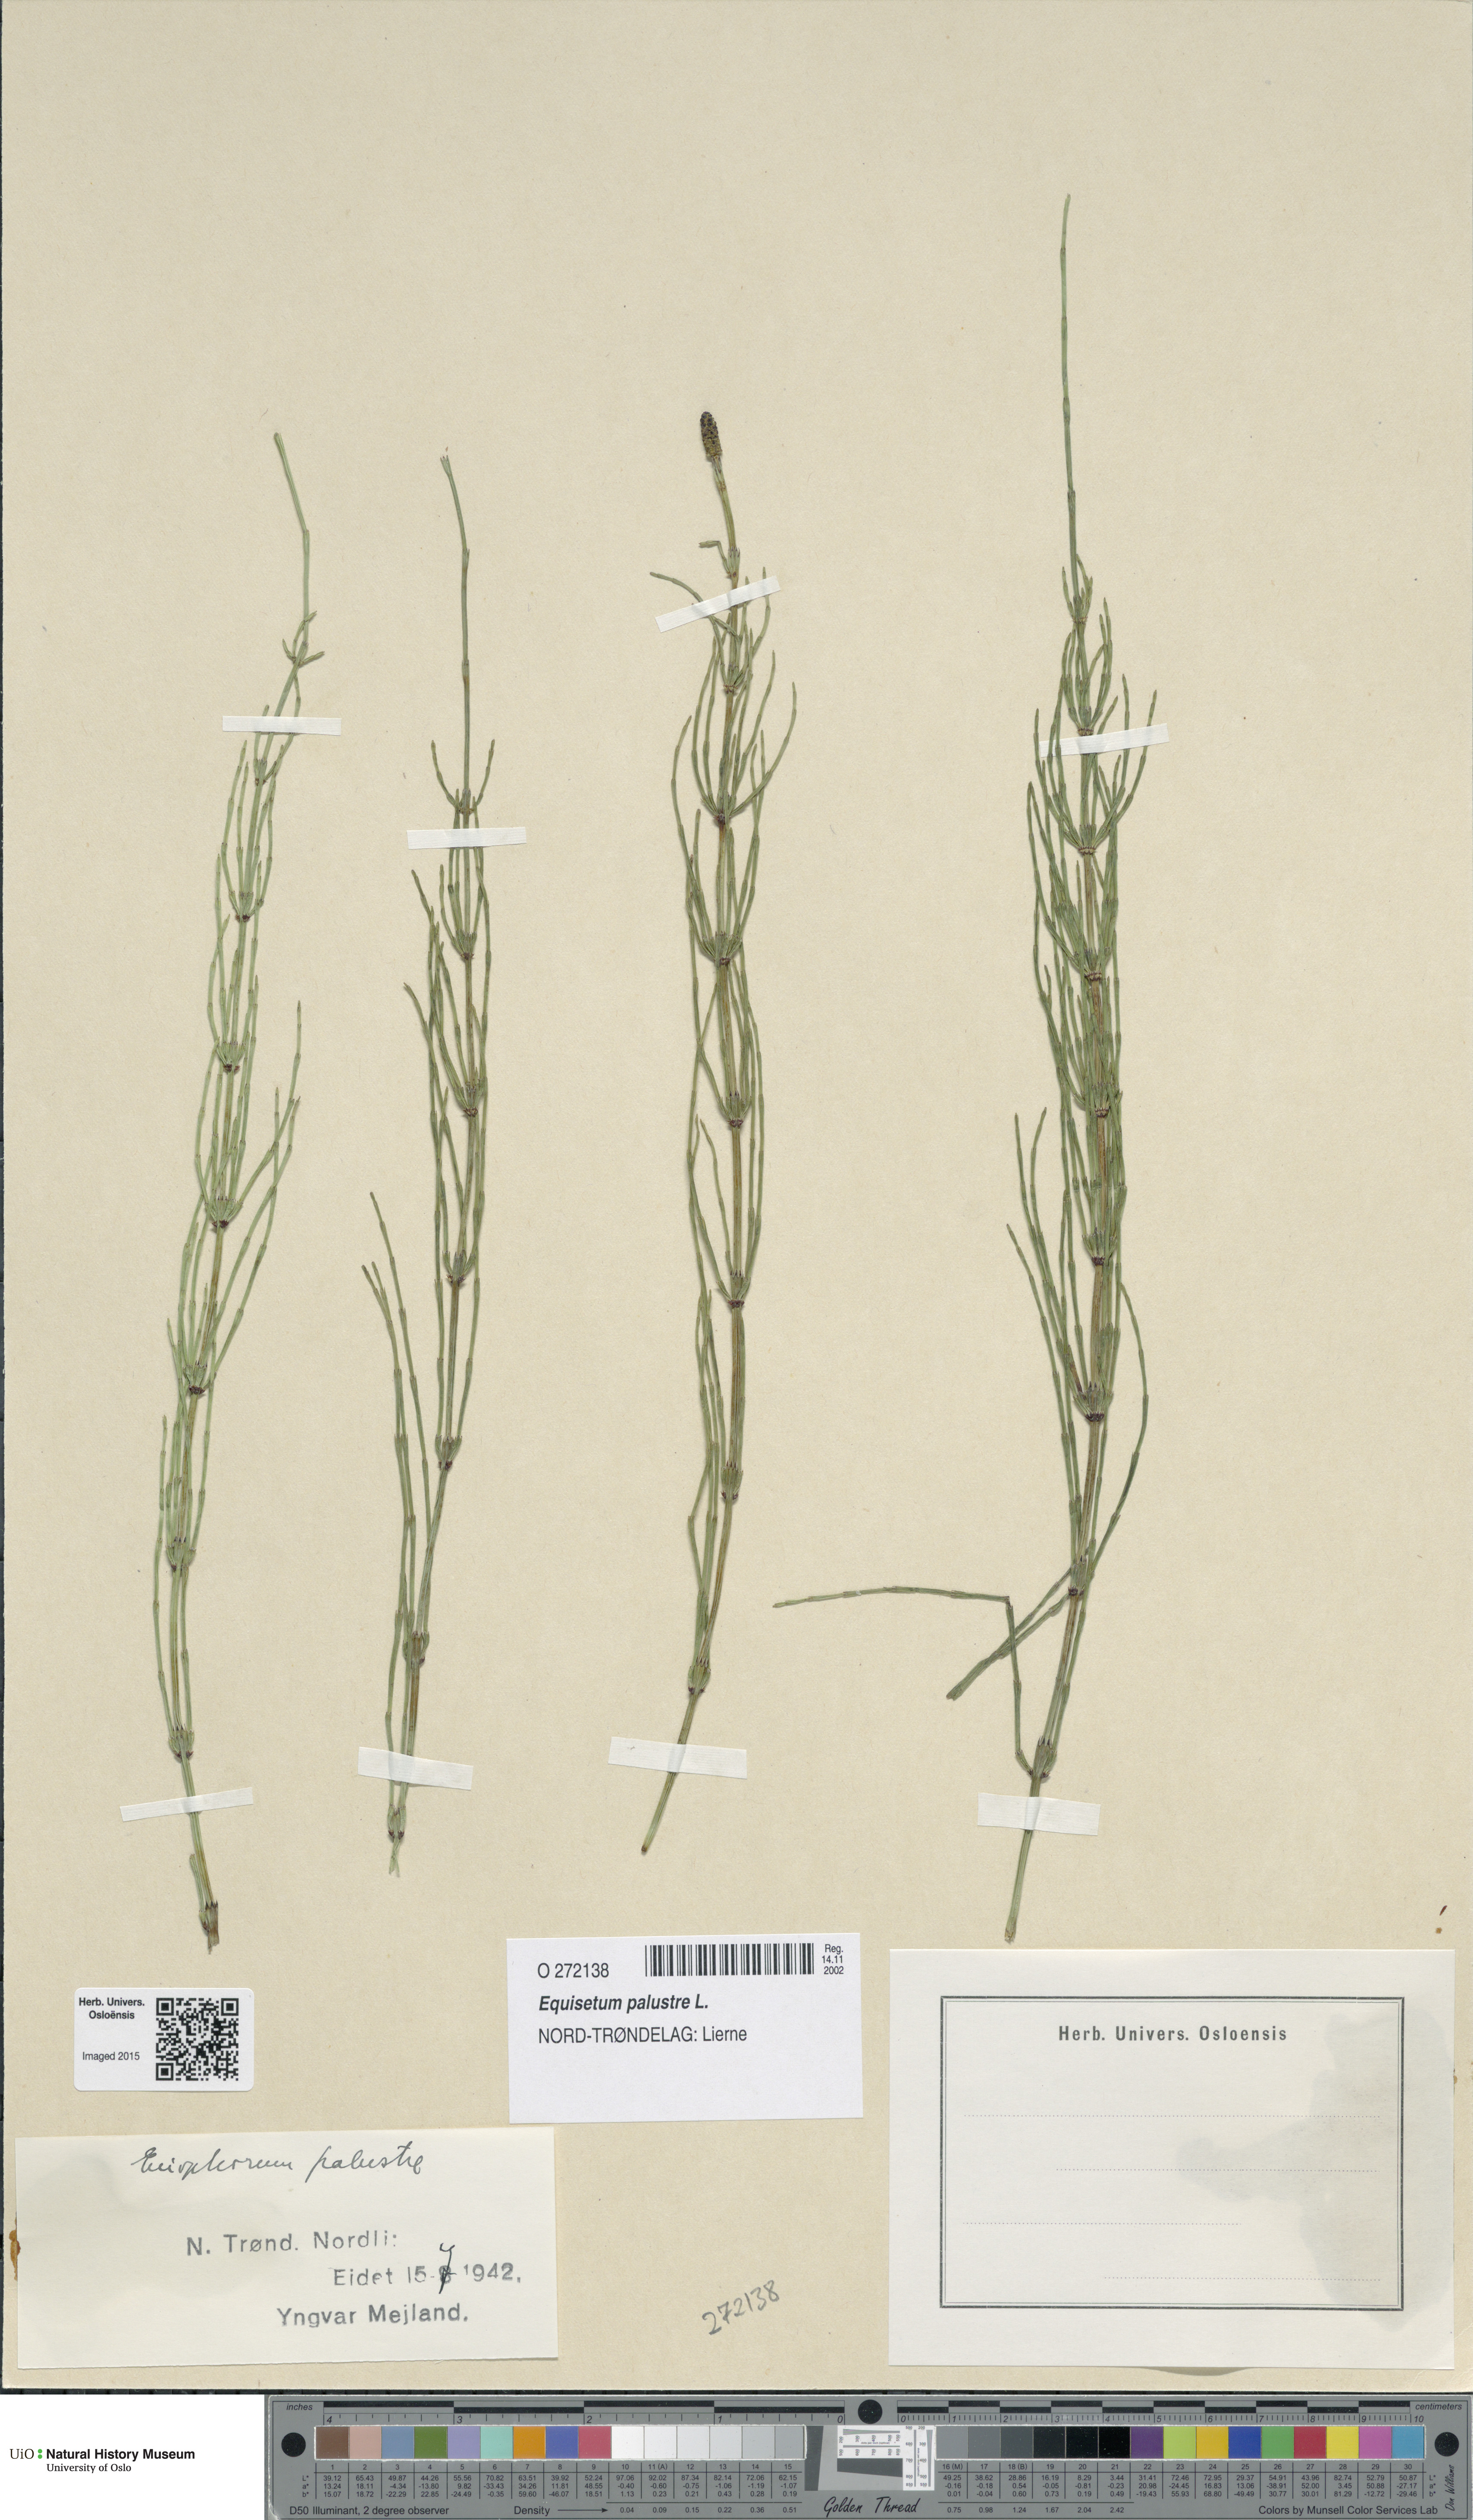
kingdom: Plantae
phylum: Tracheophyta
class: Polypodiopsida
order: Equisetales
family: Equisetaceae
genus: Equisetum
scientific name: Equisetum palustre
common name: Marsh horsetail
